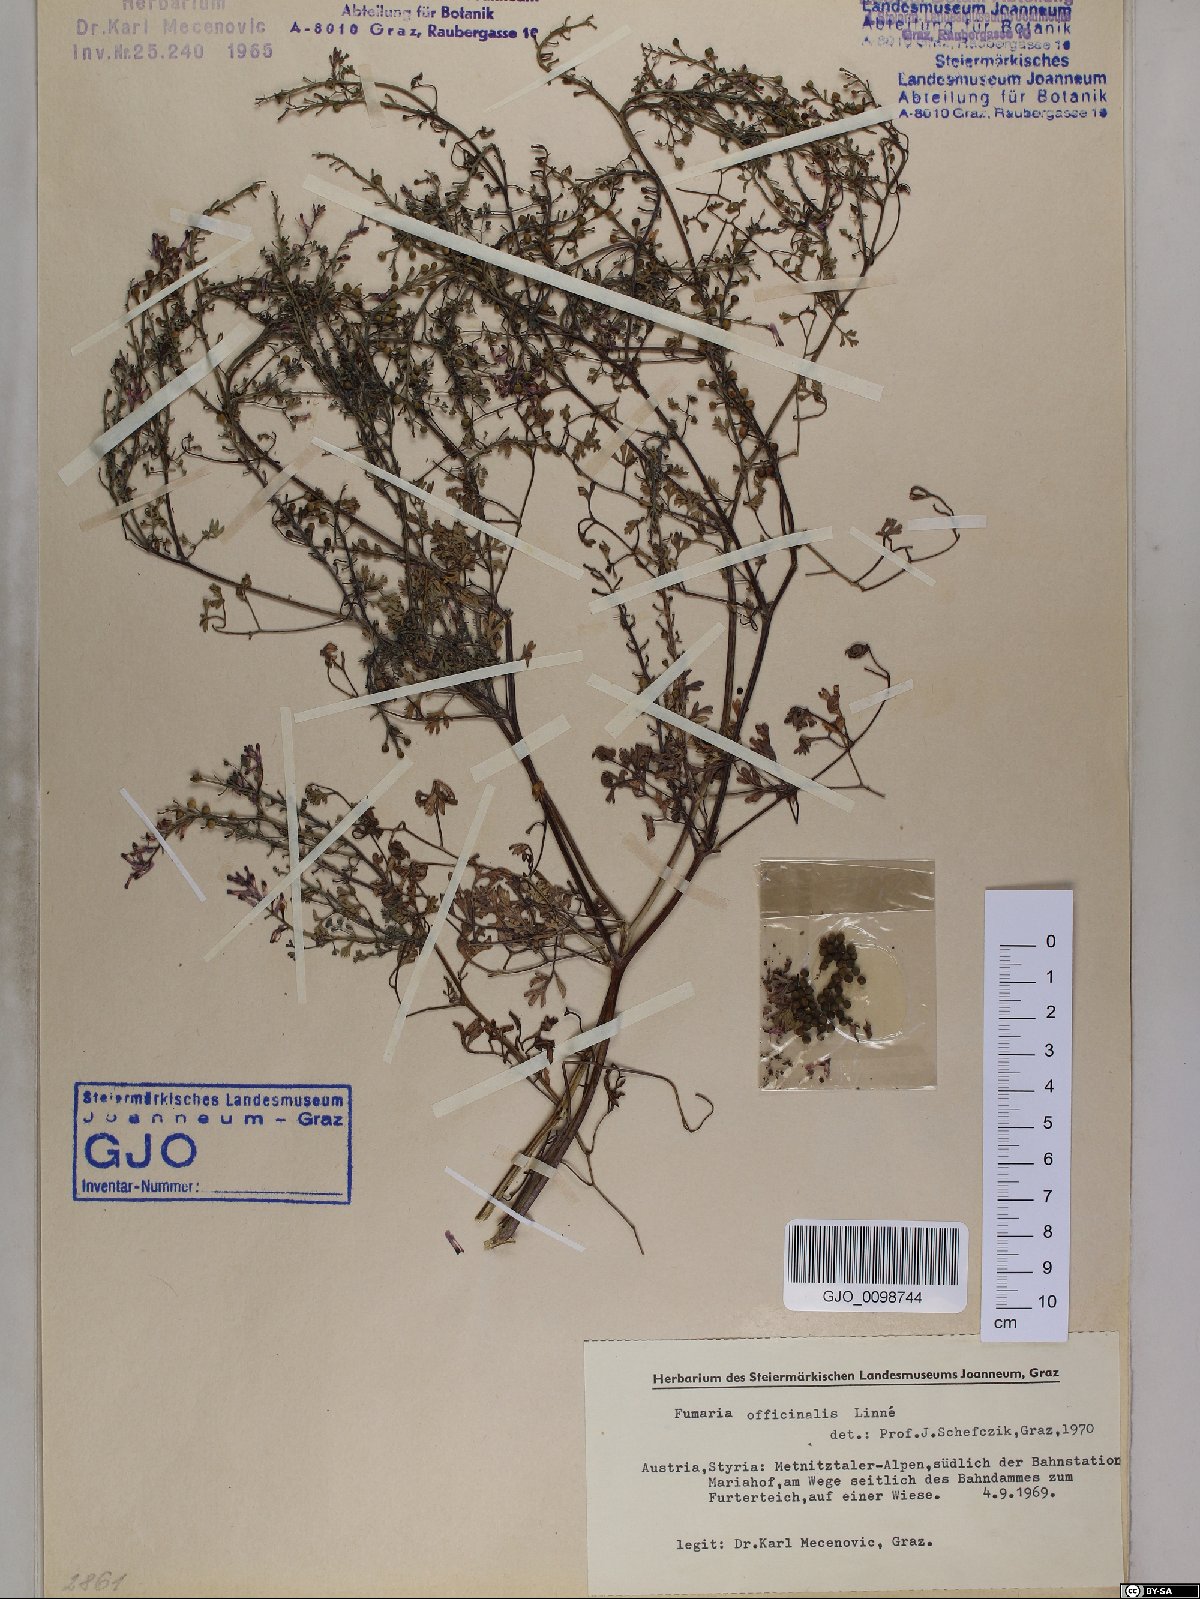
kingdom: Plantae
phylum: Tracheophyta
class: Magnoliopsida
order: Ranunculales
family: Papaveraceae
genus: Fumaria
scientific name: Fumaria officinalis
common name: Common fumitory
